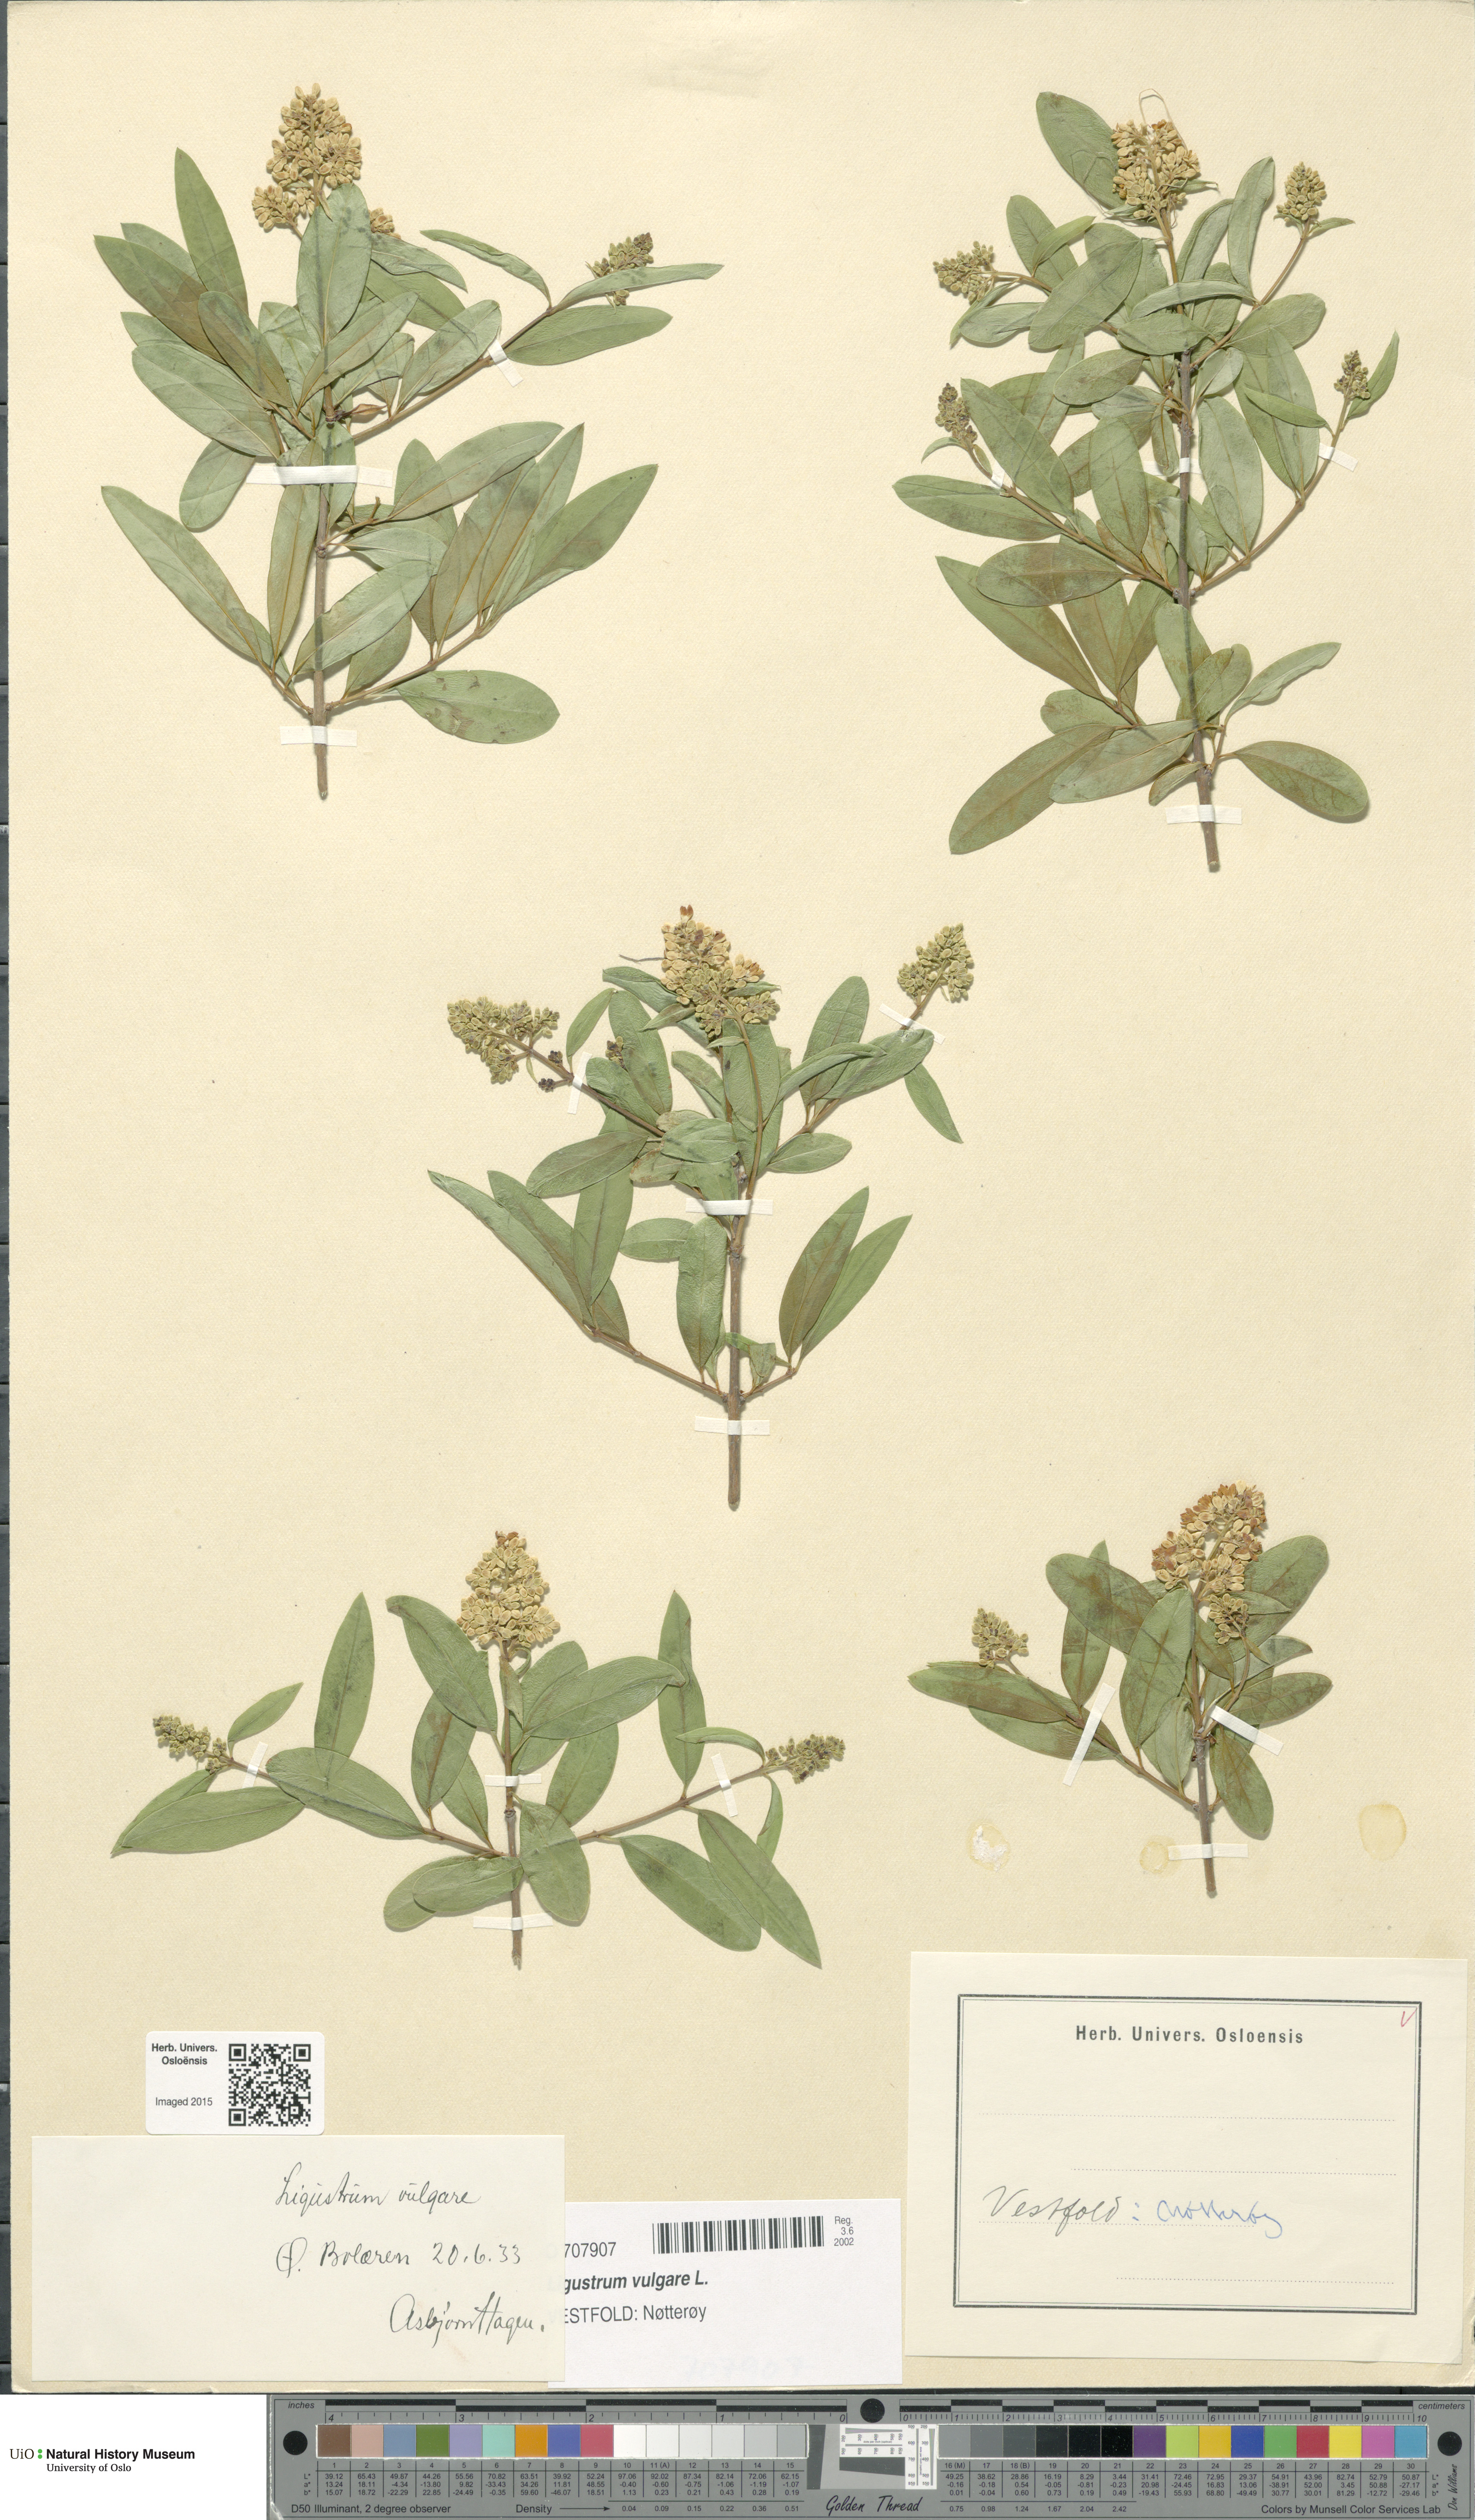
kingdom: Plantae
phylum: Tracheophyta
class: Magnoliopsida
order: Lamiales
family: Oleaceae
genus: Ligustrum
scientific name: Ligustrum vulgare
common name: Wild privet
